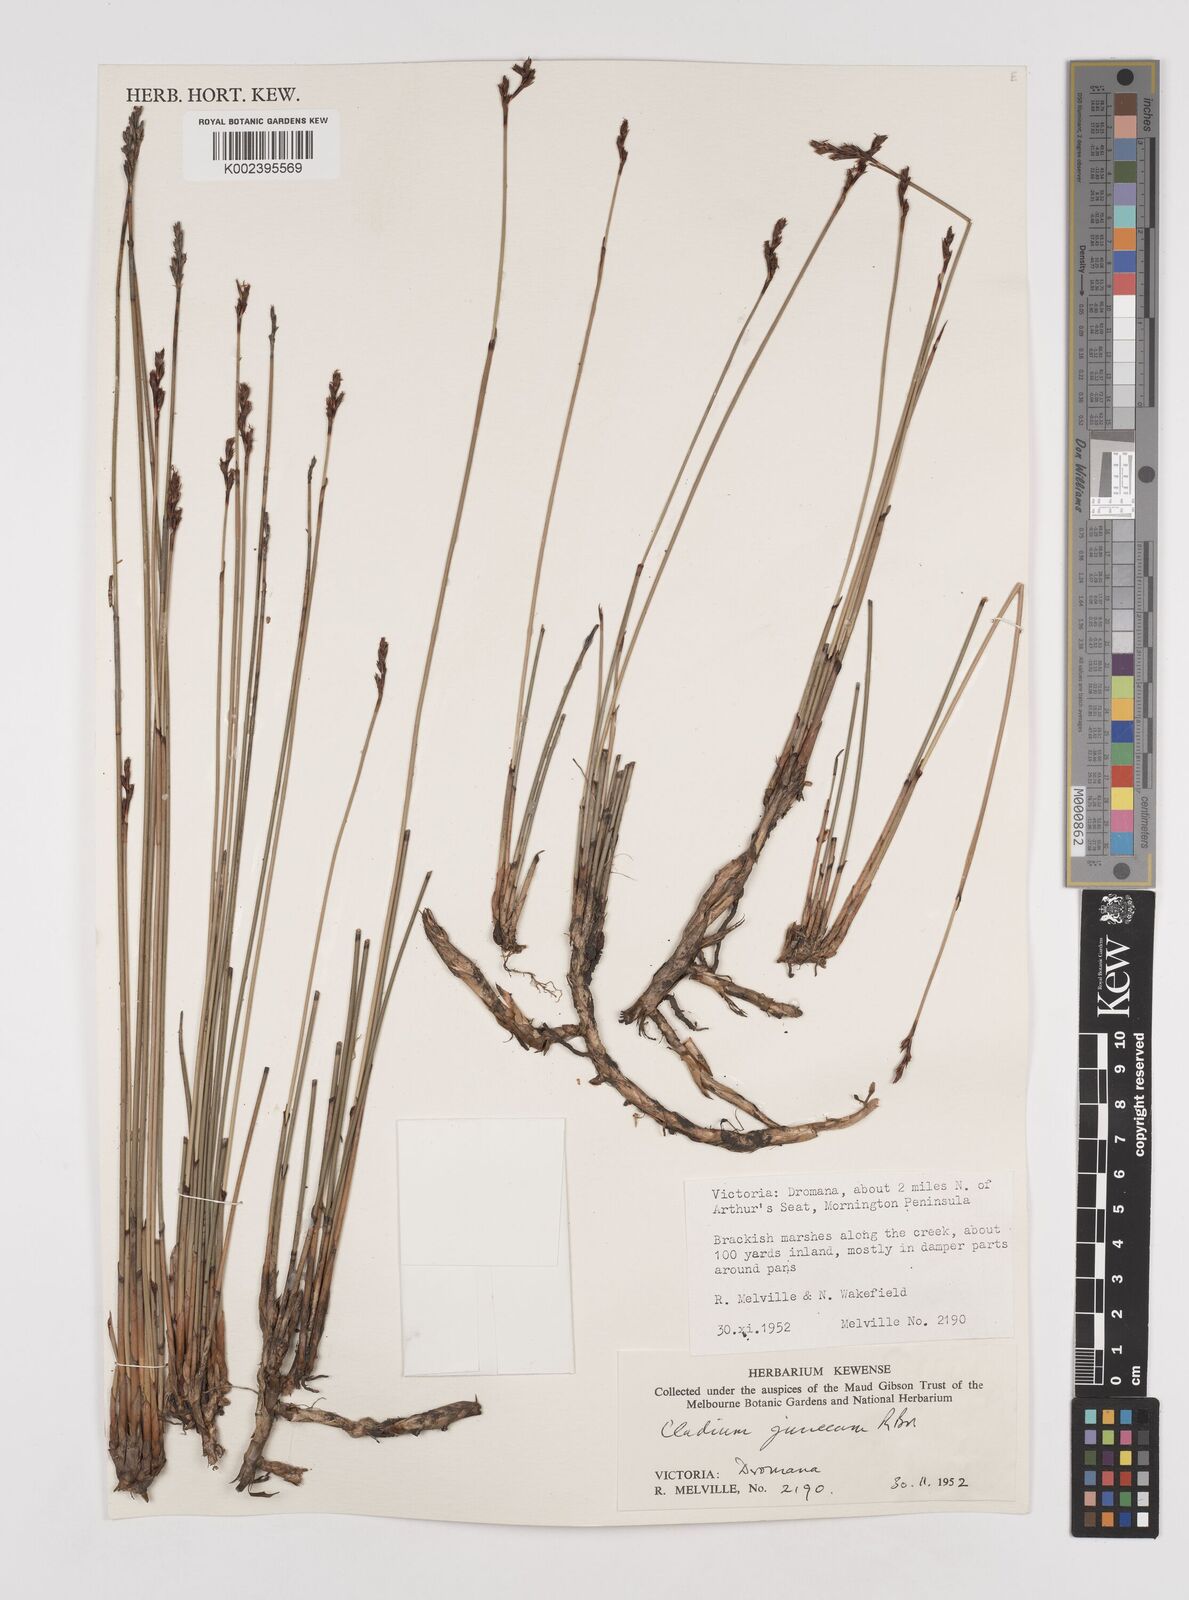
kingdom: Plantae
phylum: Tracheophyta
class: Liliopsida
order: Poales
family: Cyperaceae
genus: Machaerina
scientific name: Machaerina juncea
